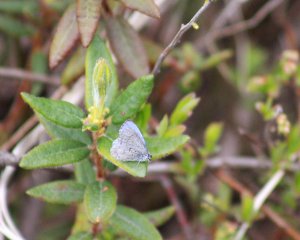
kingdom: Animalia
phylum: Arthropoda
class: Insecta
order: Lepidoptera
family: Lycaenidae
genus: Celastrina
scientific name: Celastrina lucia
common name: Northern Spring Azure
